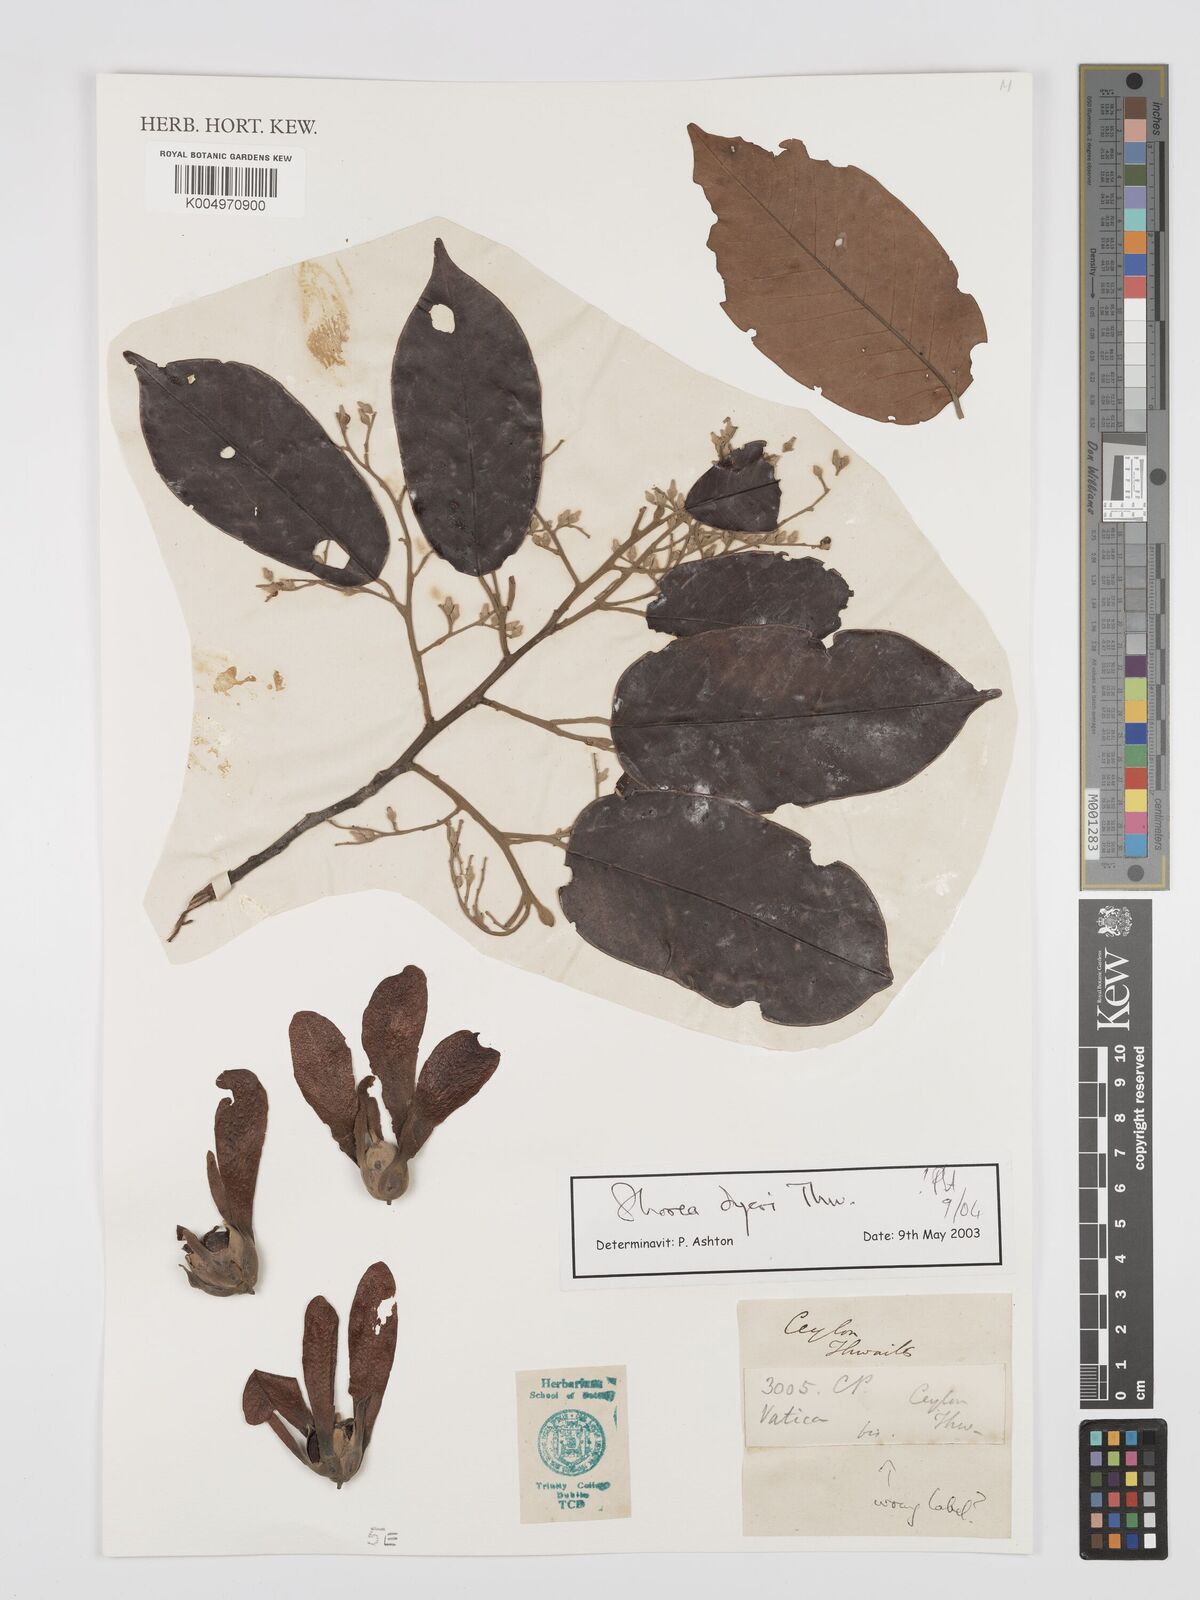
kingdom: Plantae
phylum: Tracheophyta
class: Magnoliopsida
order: Malvales
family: Dipterocarpaceae
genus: Shorea
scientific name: Shorea dyeri
